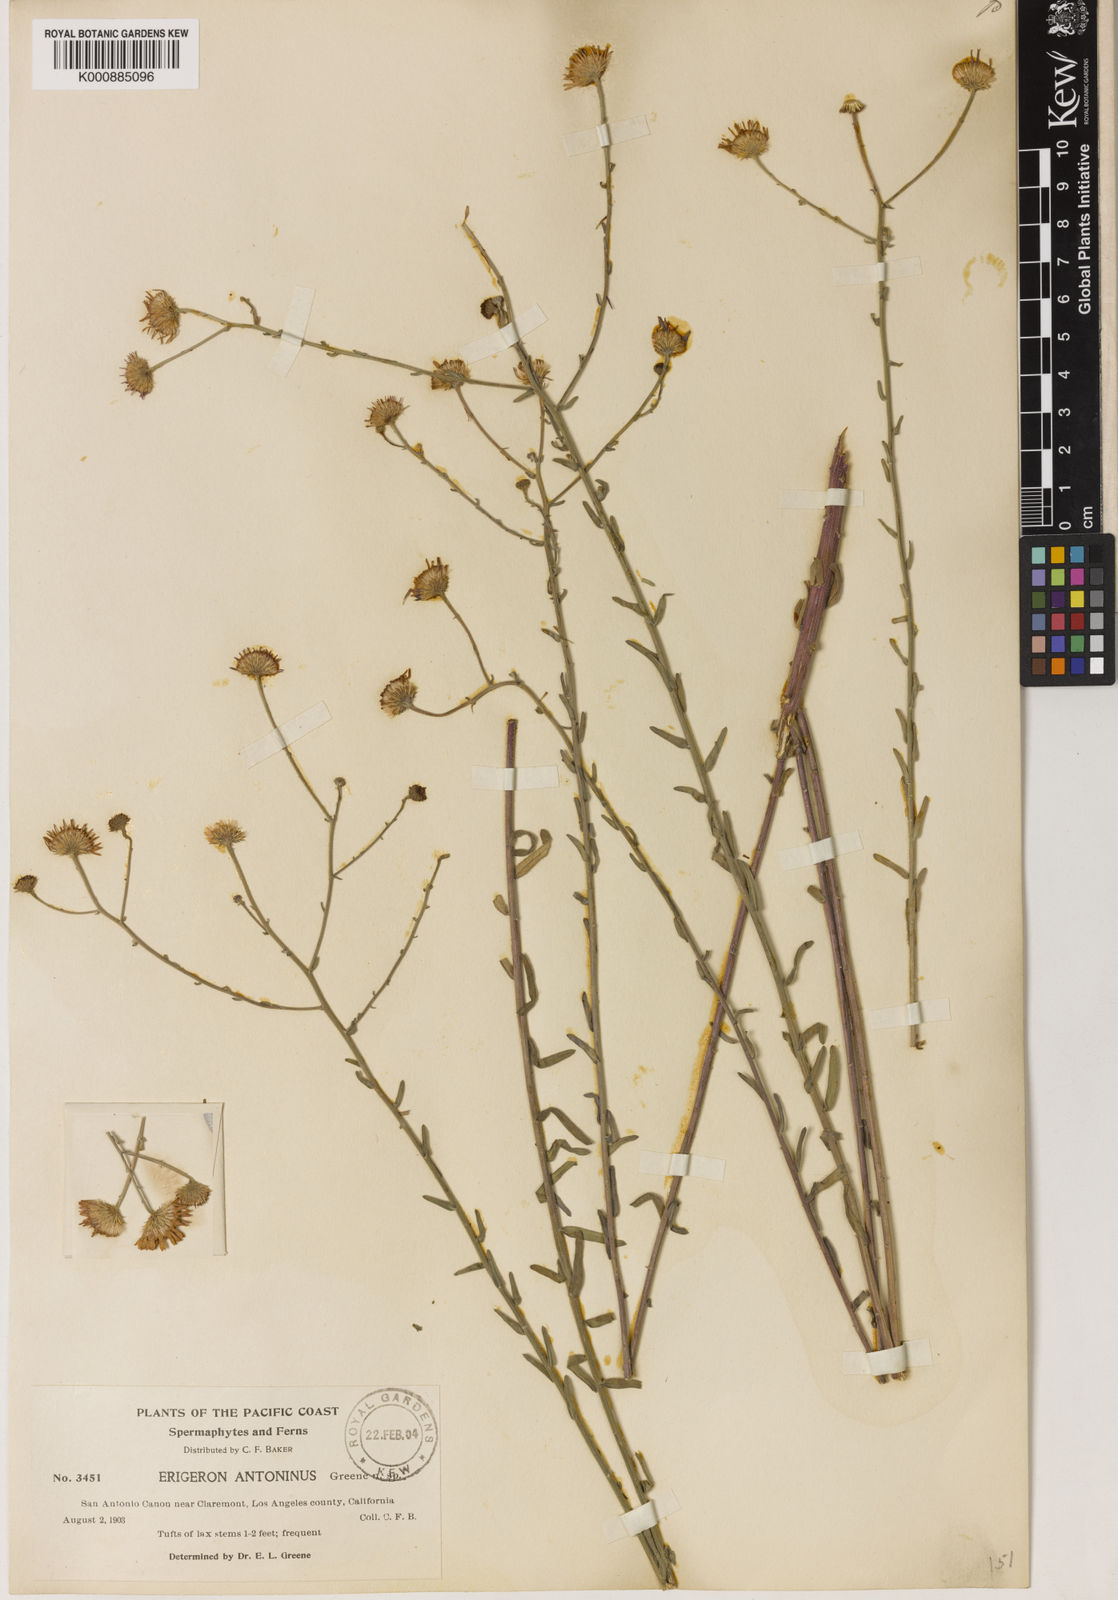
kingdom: Plantae
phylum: Tracheophyta
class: Magnoliopsida
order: Asterales
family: Asteraceae
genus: Erigeron
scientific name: Erigeron
